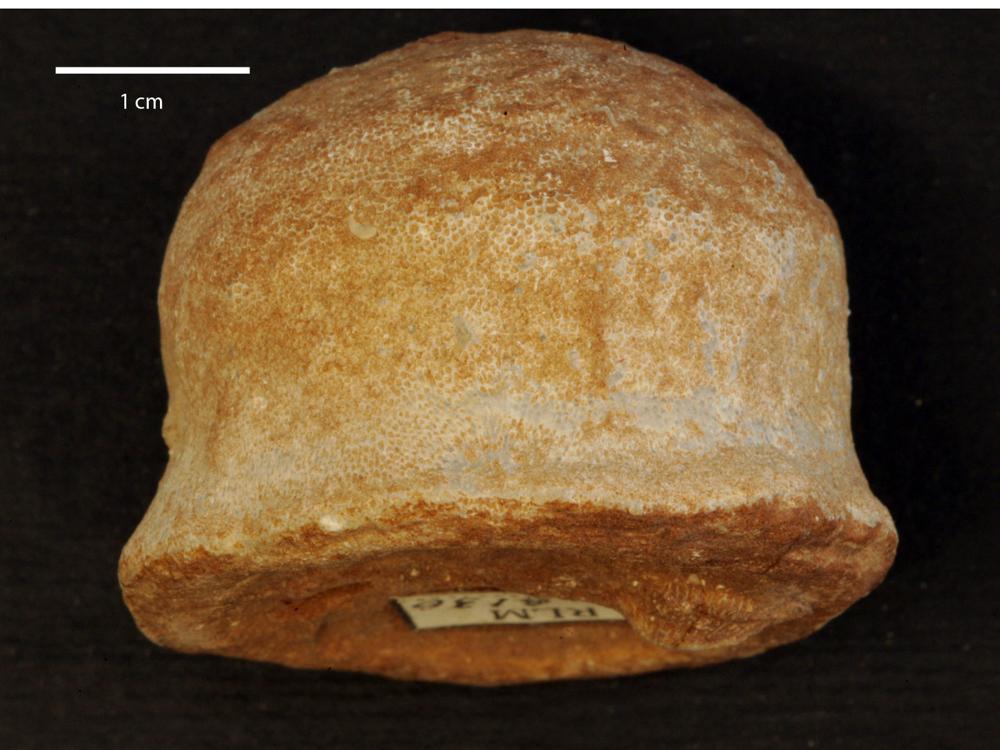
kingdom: Animalia
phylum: Echinodermata
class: Crinoidea
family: Cyclocrinidae
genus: Cyclocrinus
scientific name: Cyclocrinus
